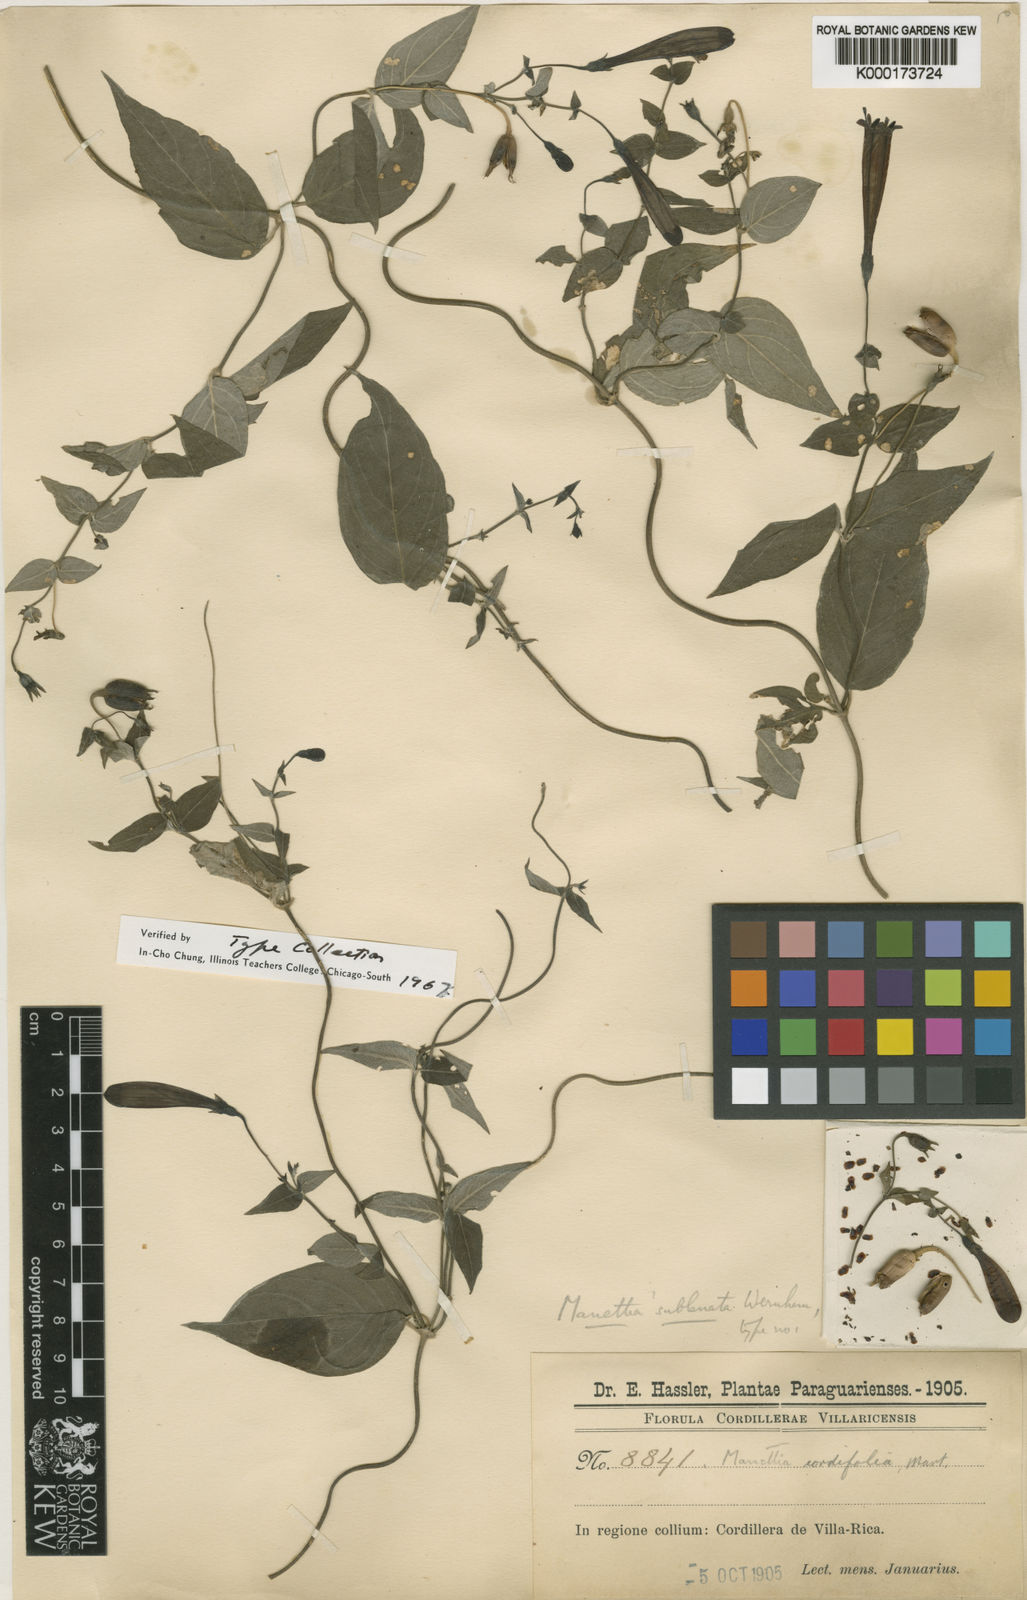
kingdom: Plantae
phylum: Tracheophyta
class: Magnoliopsida
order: Gentianales
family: Rubiaceae
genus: Manettia
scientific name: Manettia sublanata
